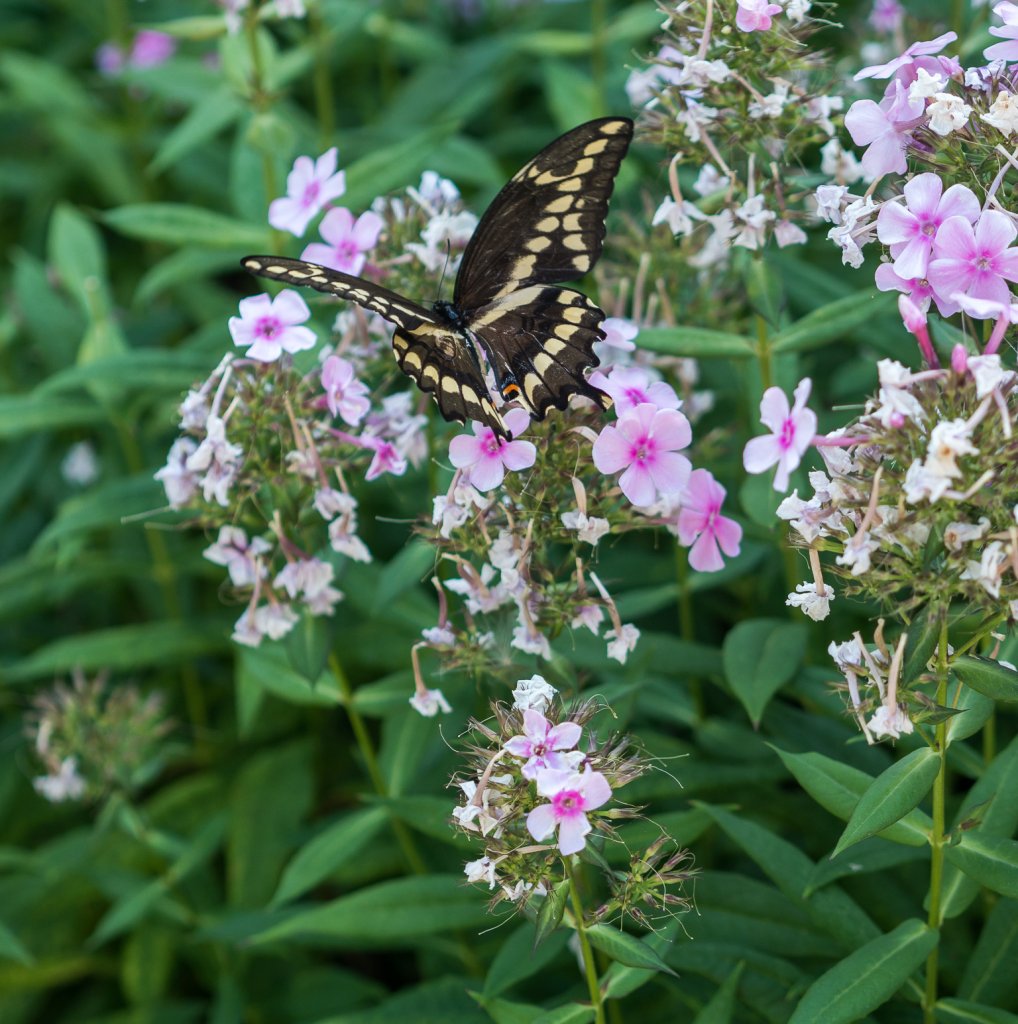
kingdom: Animalia
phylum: Arthropoda
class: Insecta
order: Lepidoptera
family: Papilionidae
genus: Papilio
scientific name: Papilio cresphontes
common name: Eastern Giant Swallowtail
